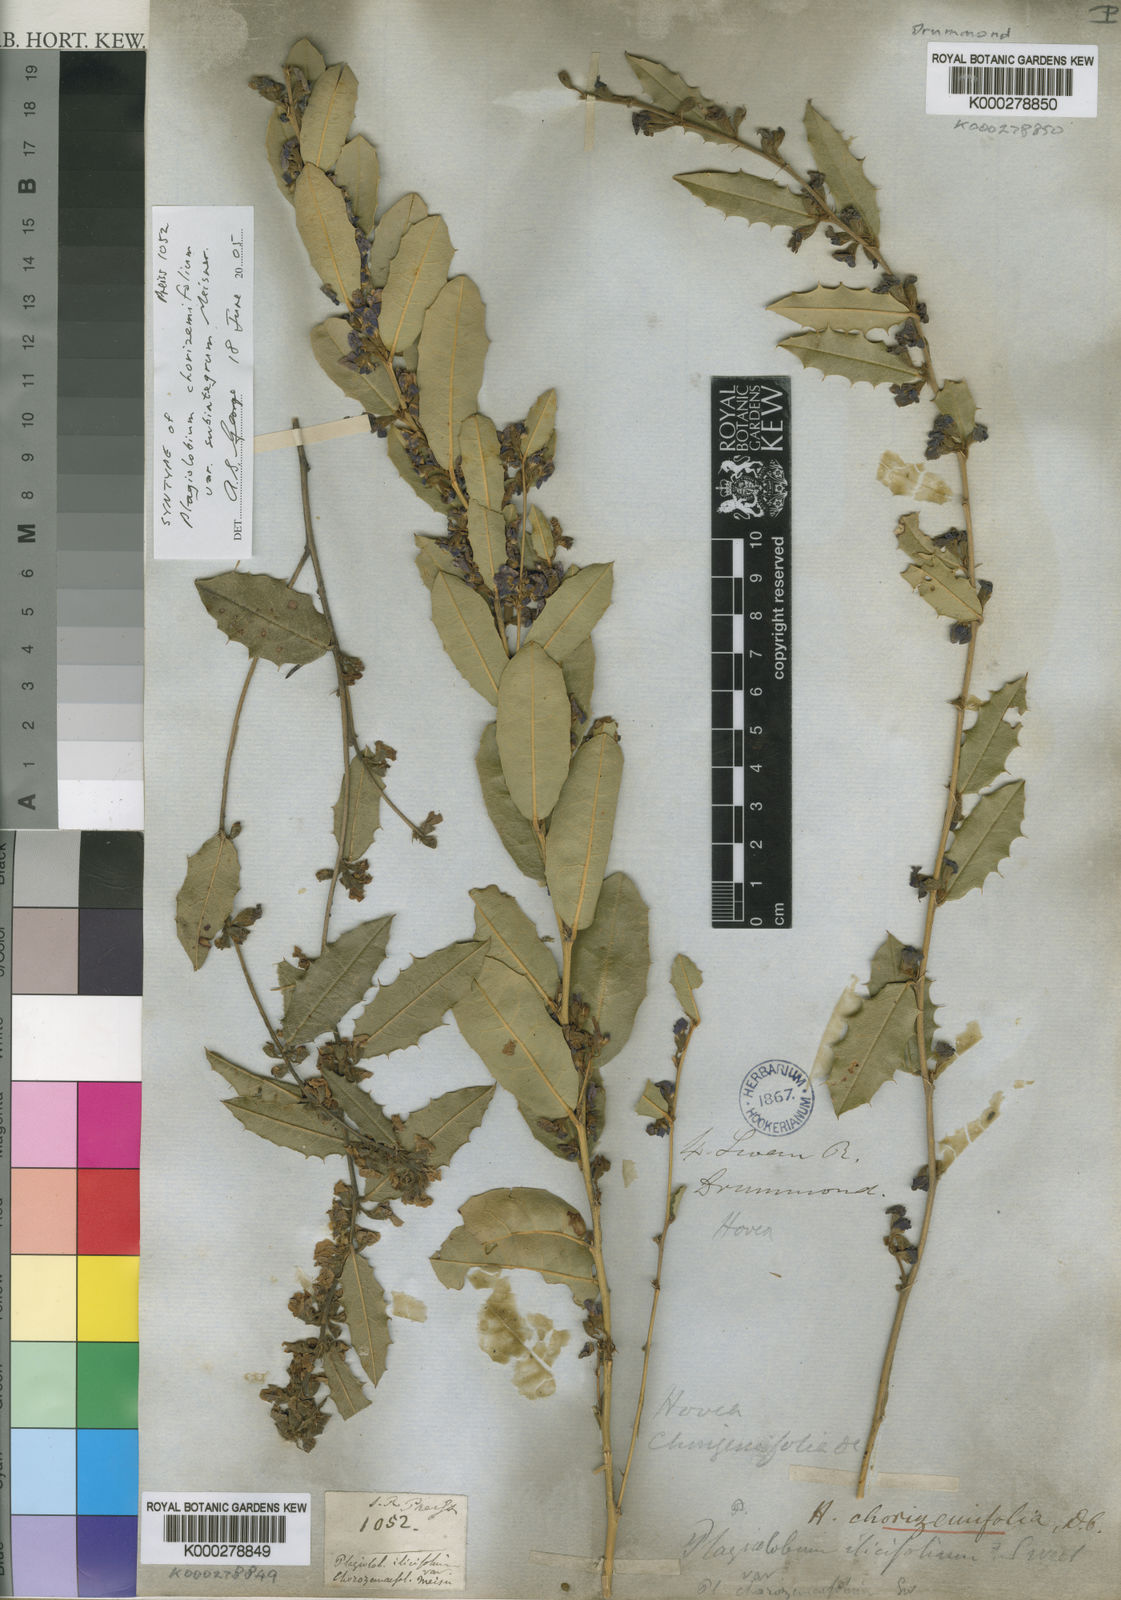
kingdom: Plantae
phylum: Tracheophyta
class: Magnoliopsida
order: Fabales
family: Fabaceae
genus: Hovea
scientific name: Hovea chorizemifolia
